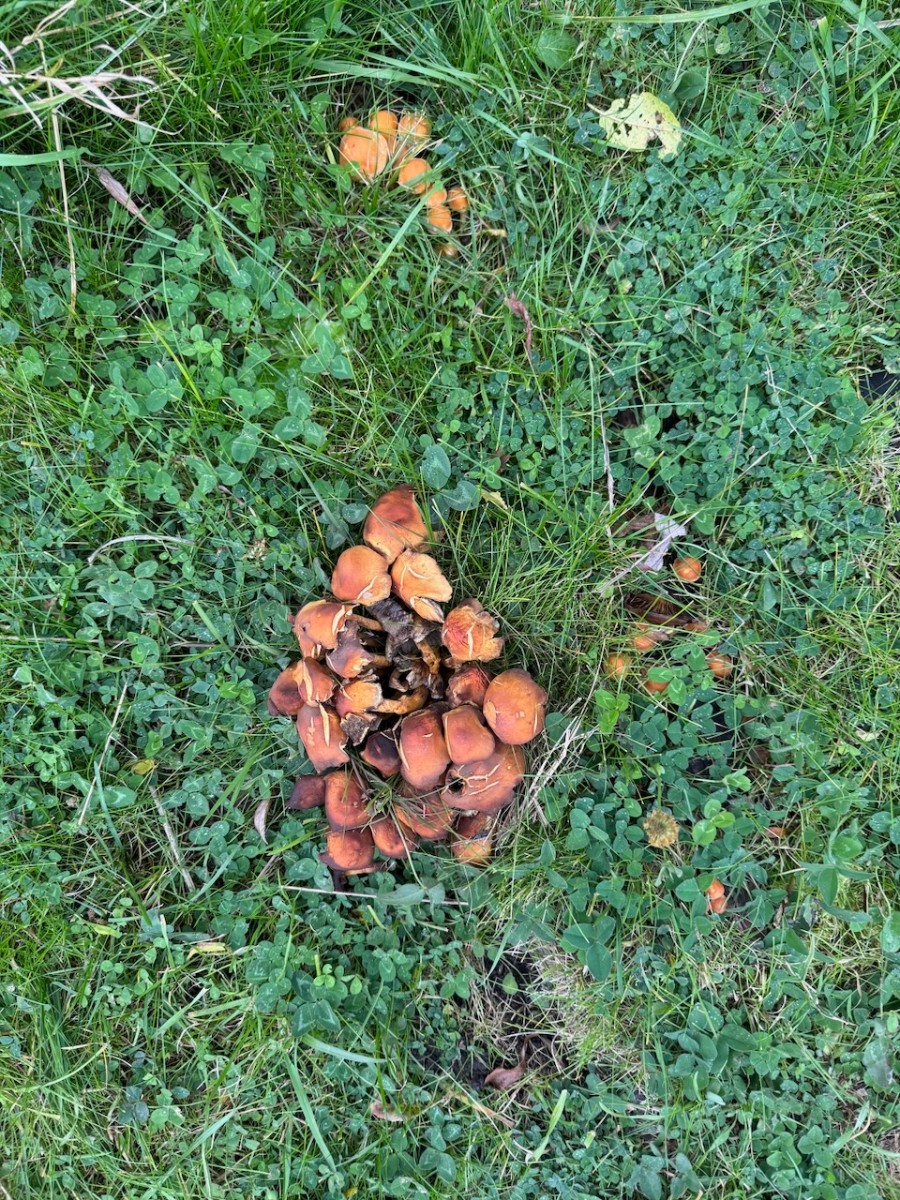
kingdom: Fungi
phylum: Basidiomycota
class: Agaricomycetes
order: Agaricales
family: Strophariaceae
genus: Hypholoma
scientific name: Hypholoma
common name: svovlhat
